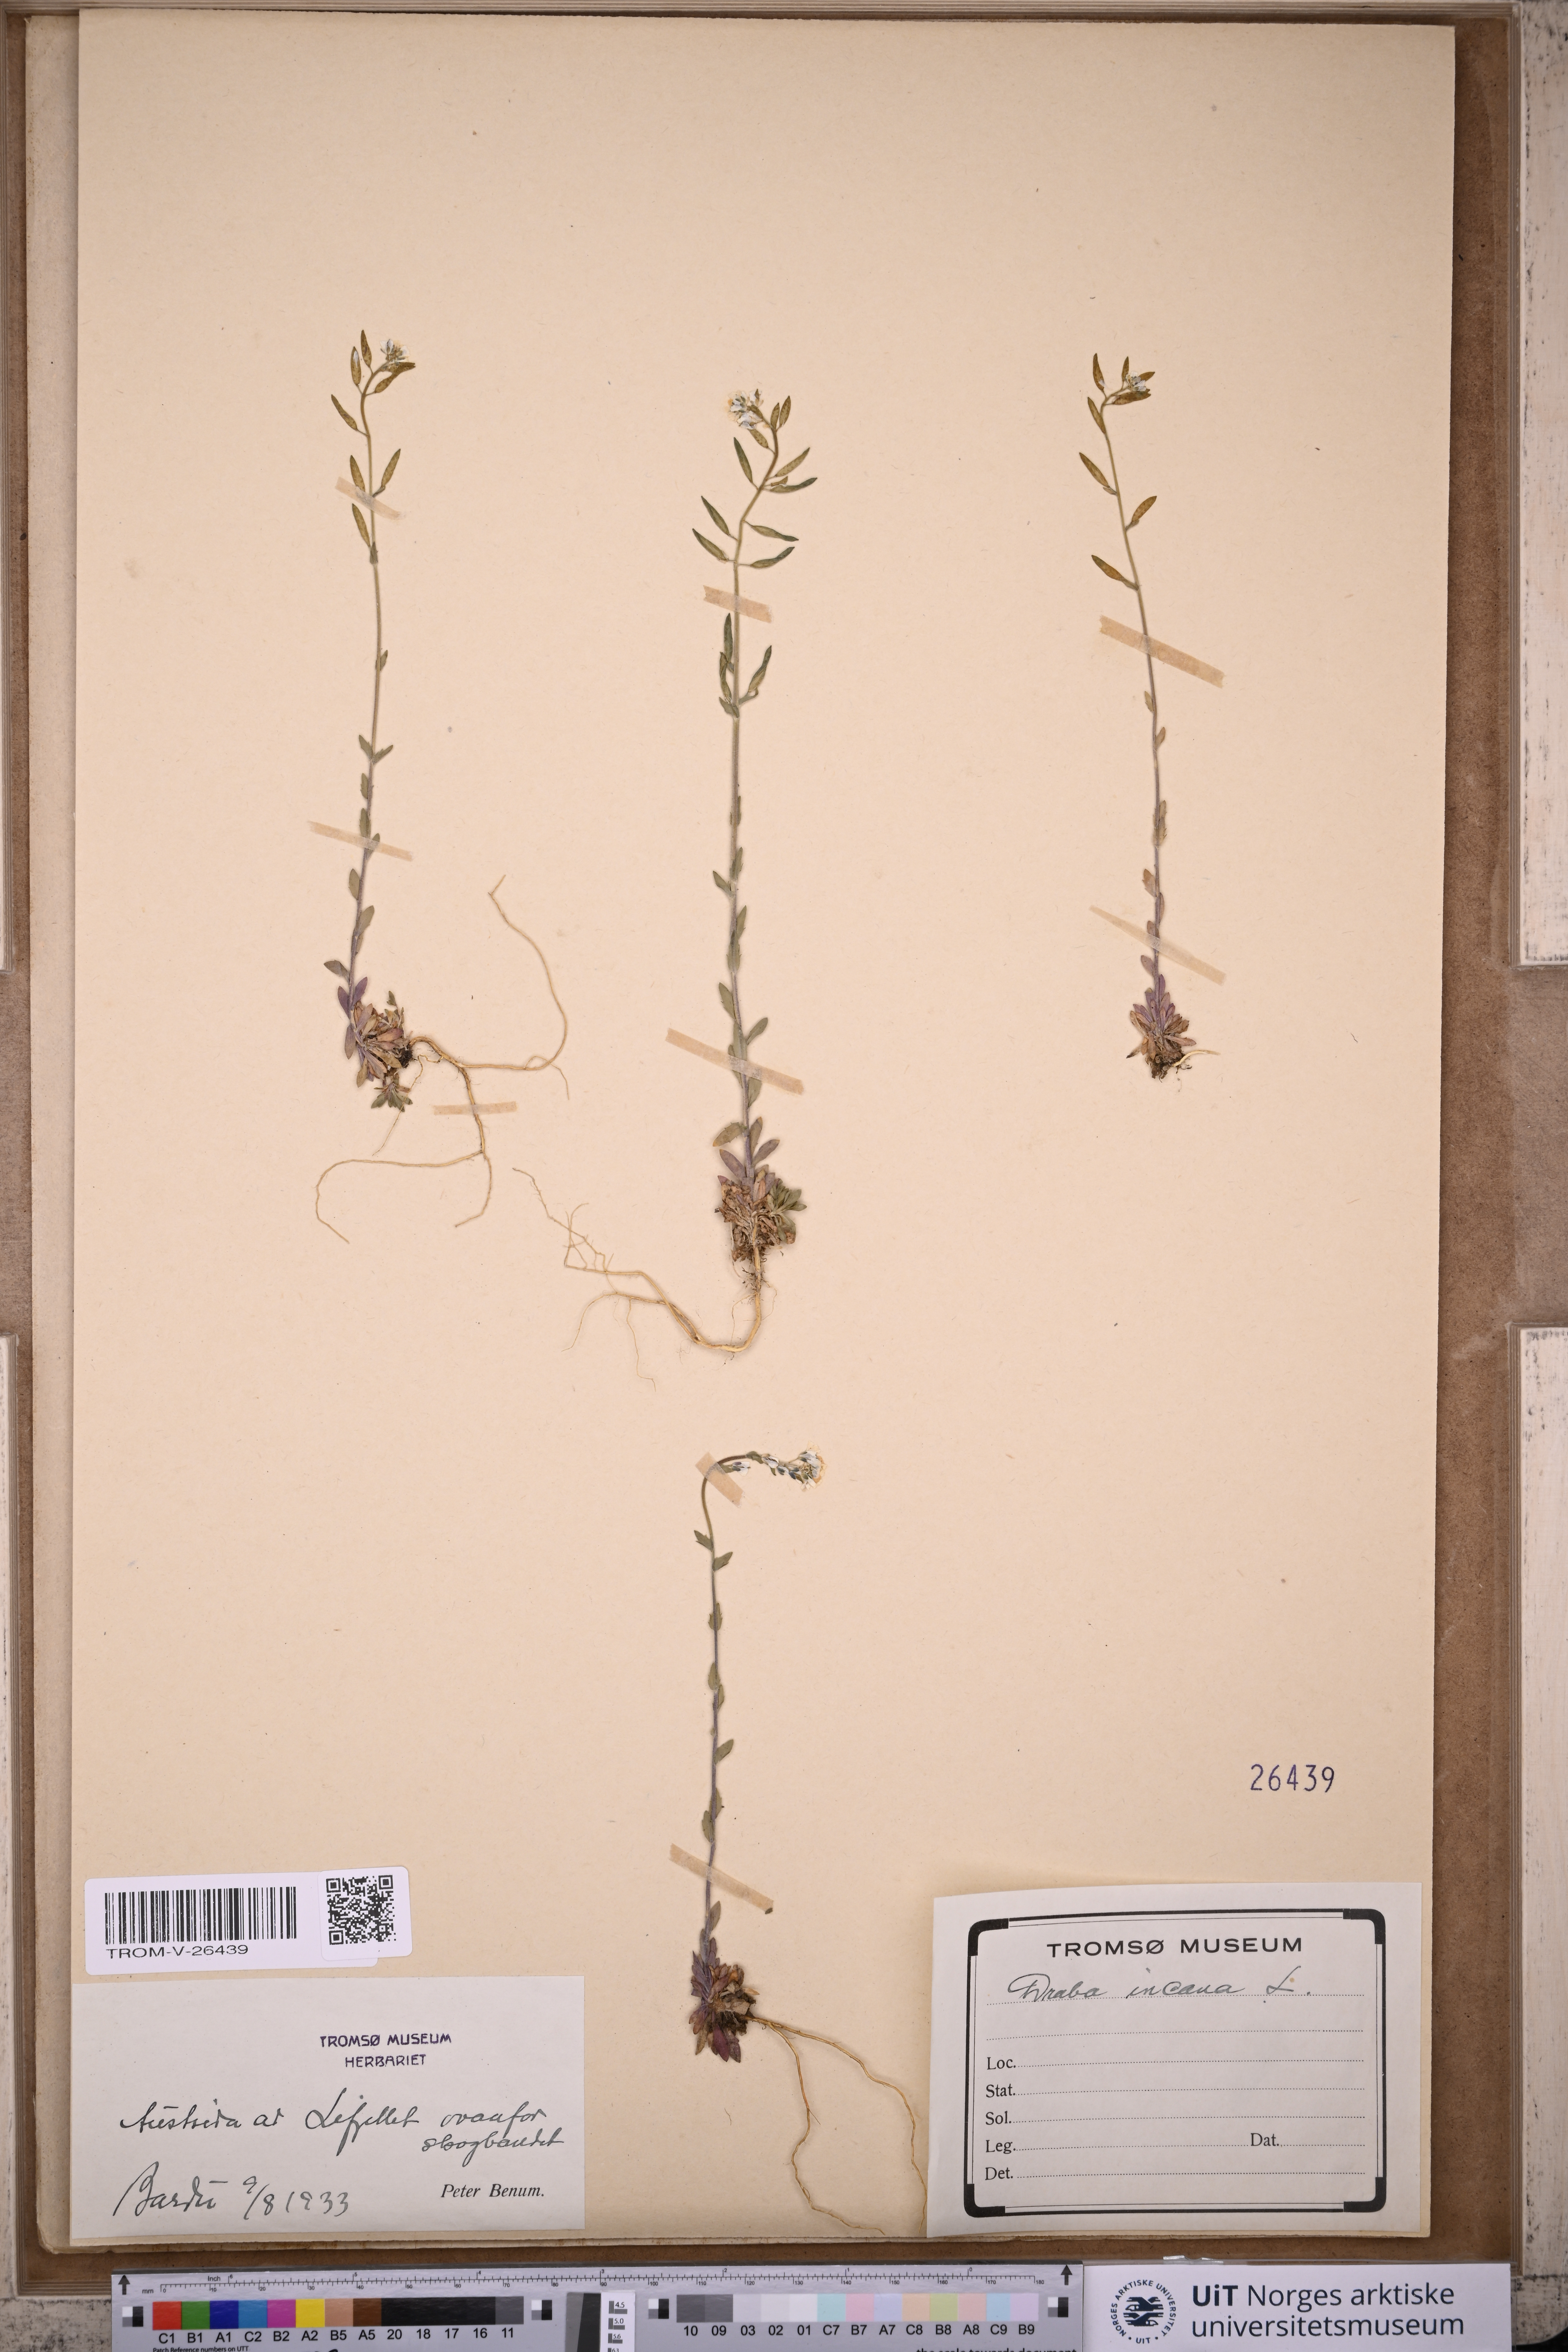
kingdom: Plantae
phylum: Tracheophyta
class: Magnoliopsida
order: Brassicales
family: Brassicaceae
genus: Draba
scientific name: Draba incana
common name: Hoary whitlow-grass
